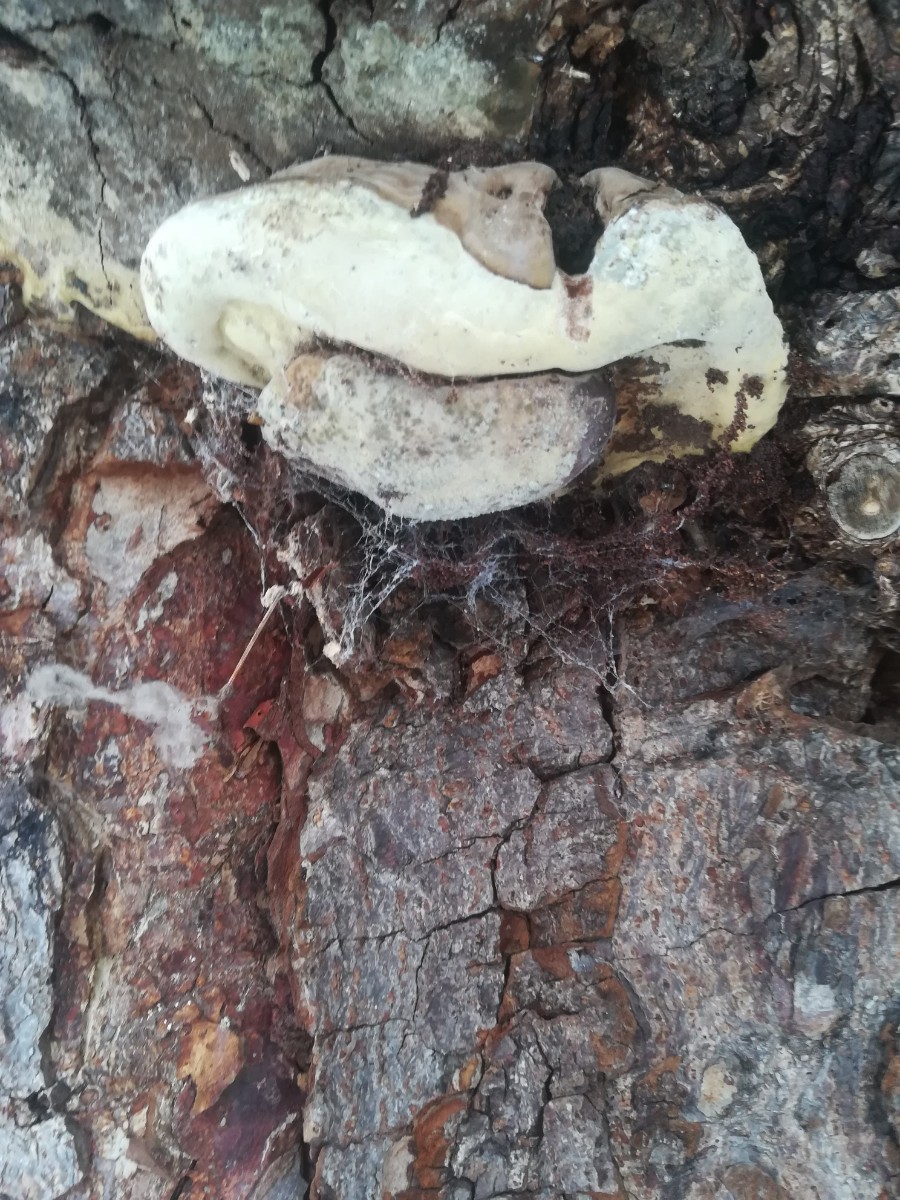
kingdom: Fungi
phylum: Basidiomycota
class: Agaricomycetes
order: Polyporales
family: Polyporaceae
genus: Ganoderma
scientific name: Ganoderma adspersum
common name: grov lakporesvamp
